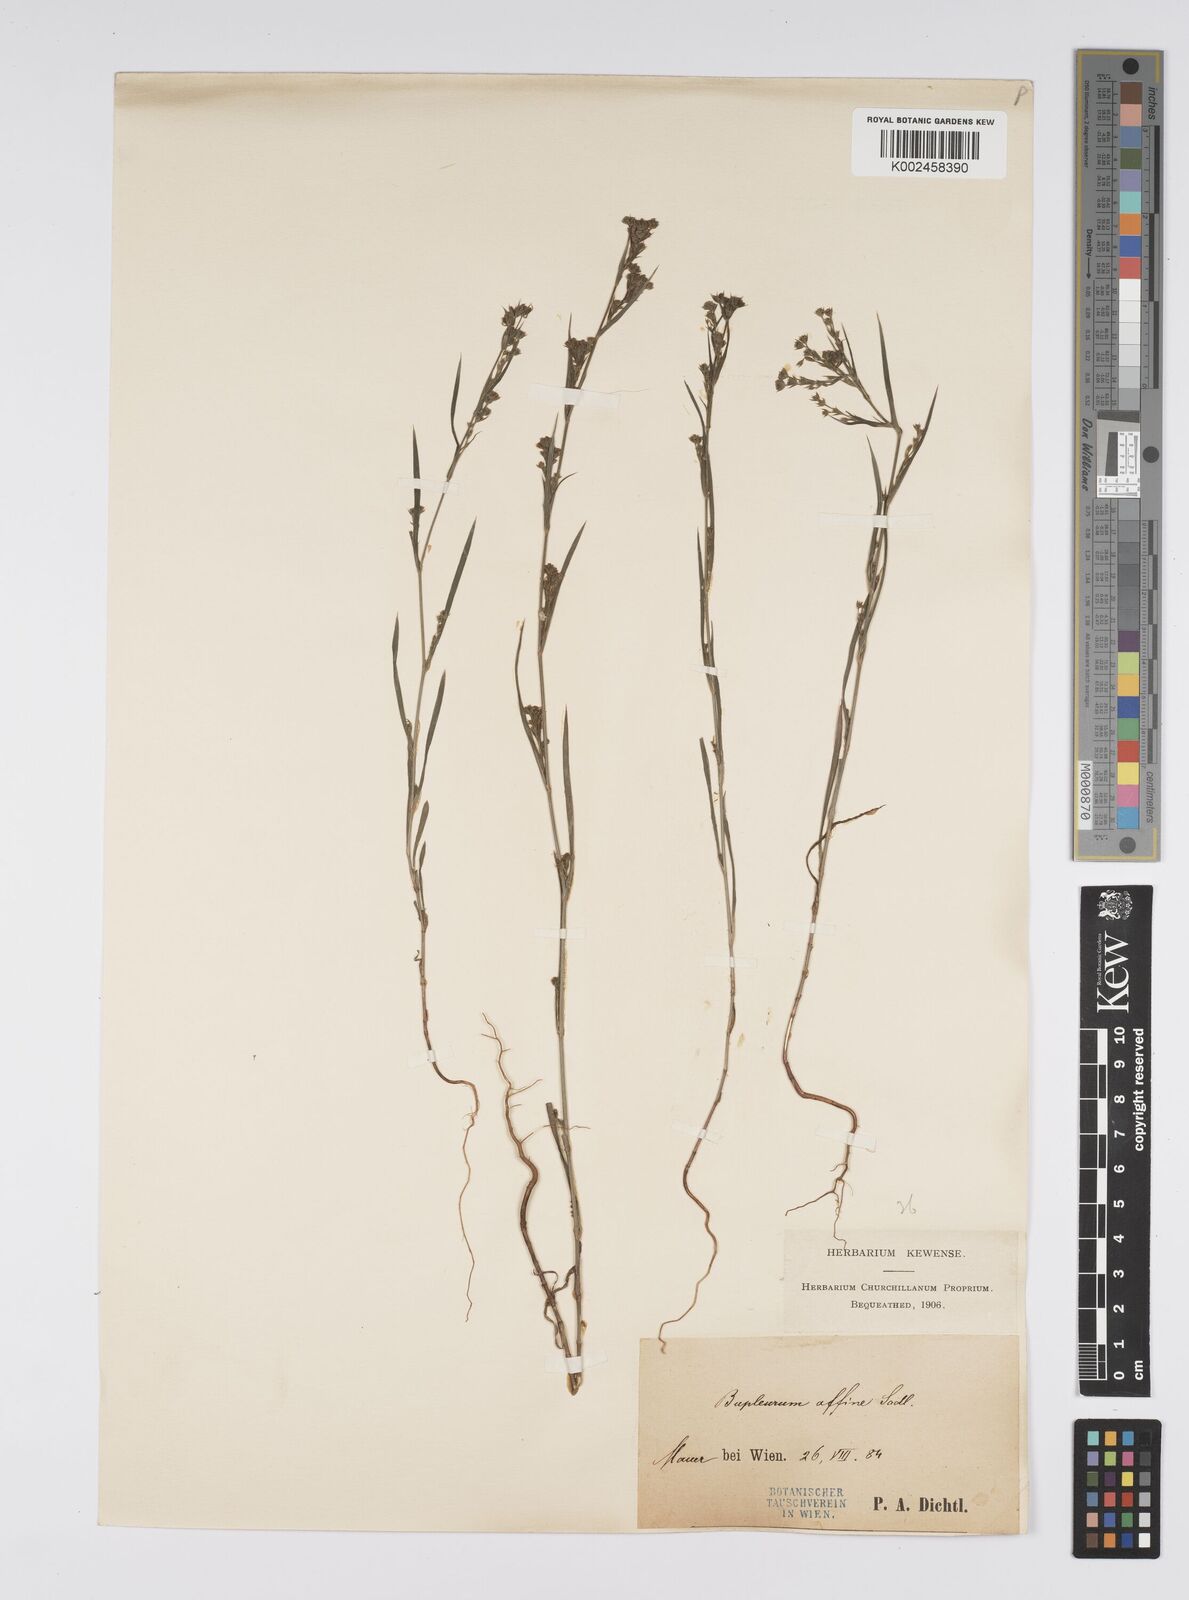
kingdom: Plantae
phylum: Tracheophyta
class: Magnoliopsida
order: Apiales
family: Apiaceae
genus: Bupleurum
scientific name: Bupleurum affine
